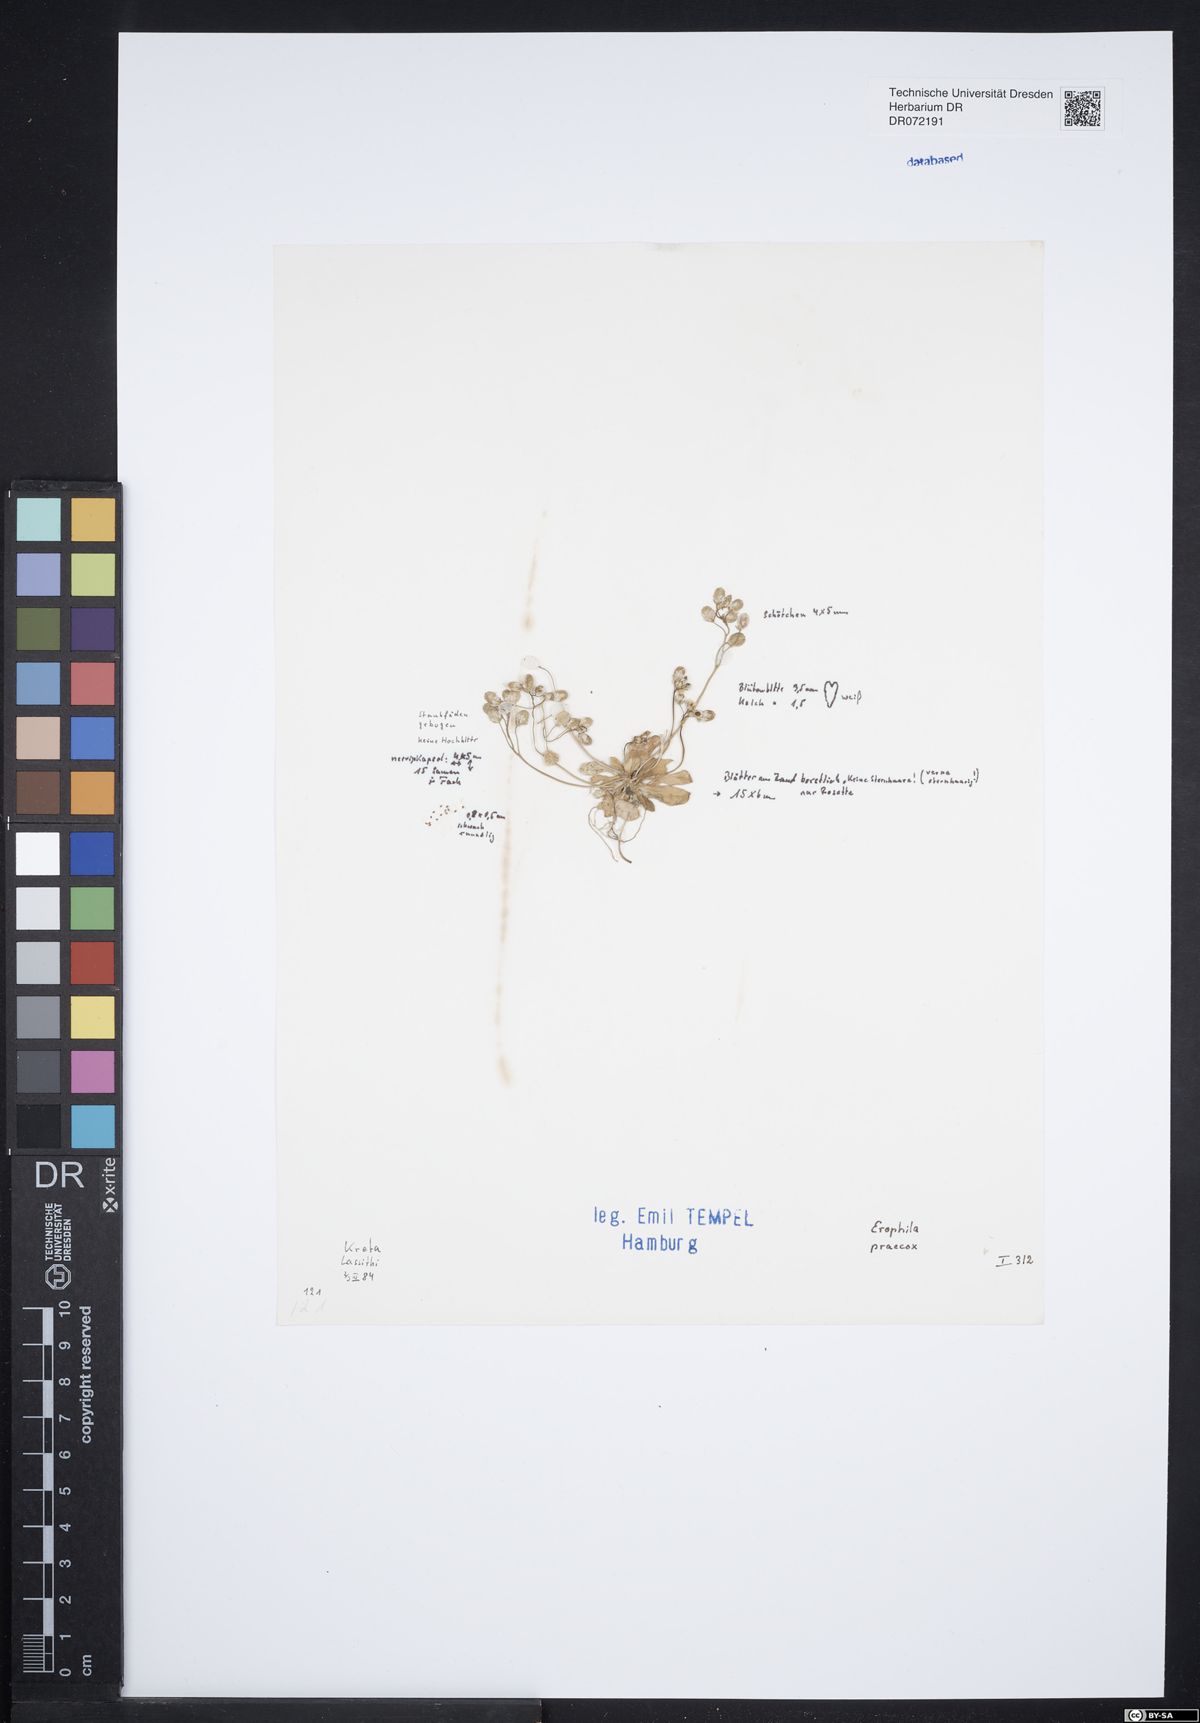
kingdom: Plantae
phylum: Tracheophyta
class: Magnoliopsida
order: Brassicales
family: Brassicaceae
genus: Draba
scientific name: Draba verna
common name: Spring draba
